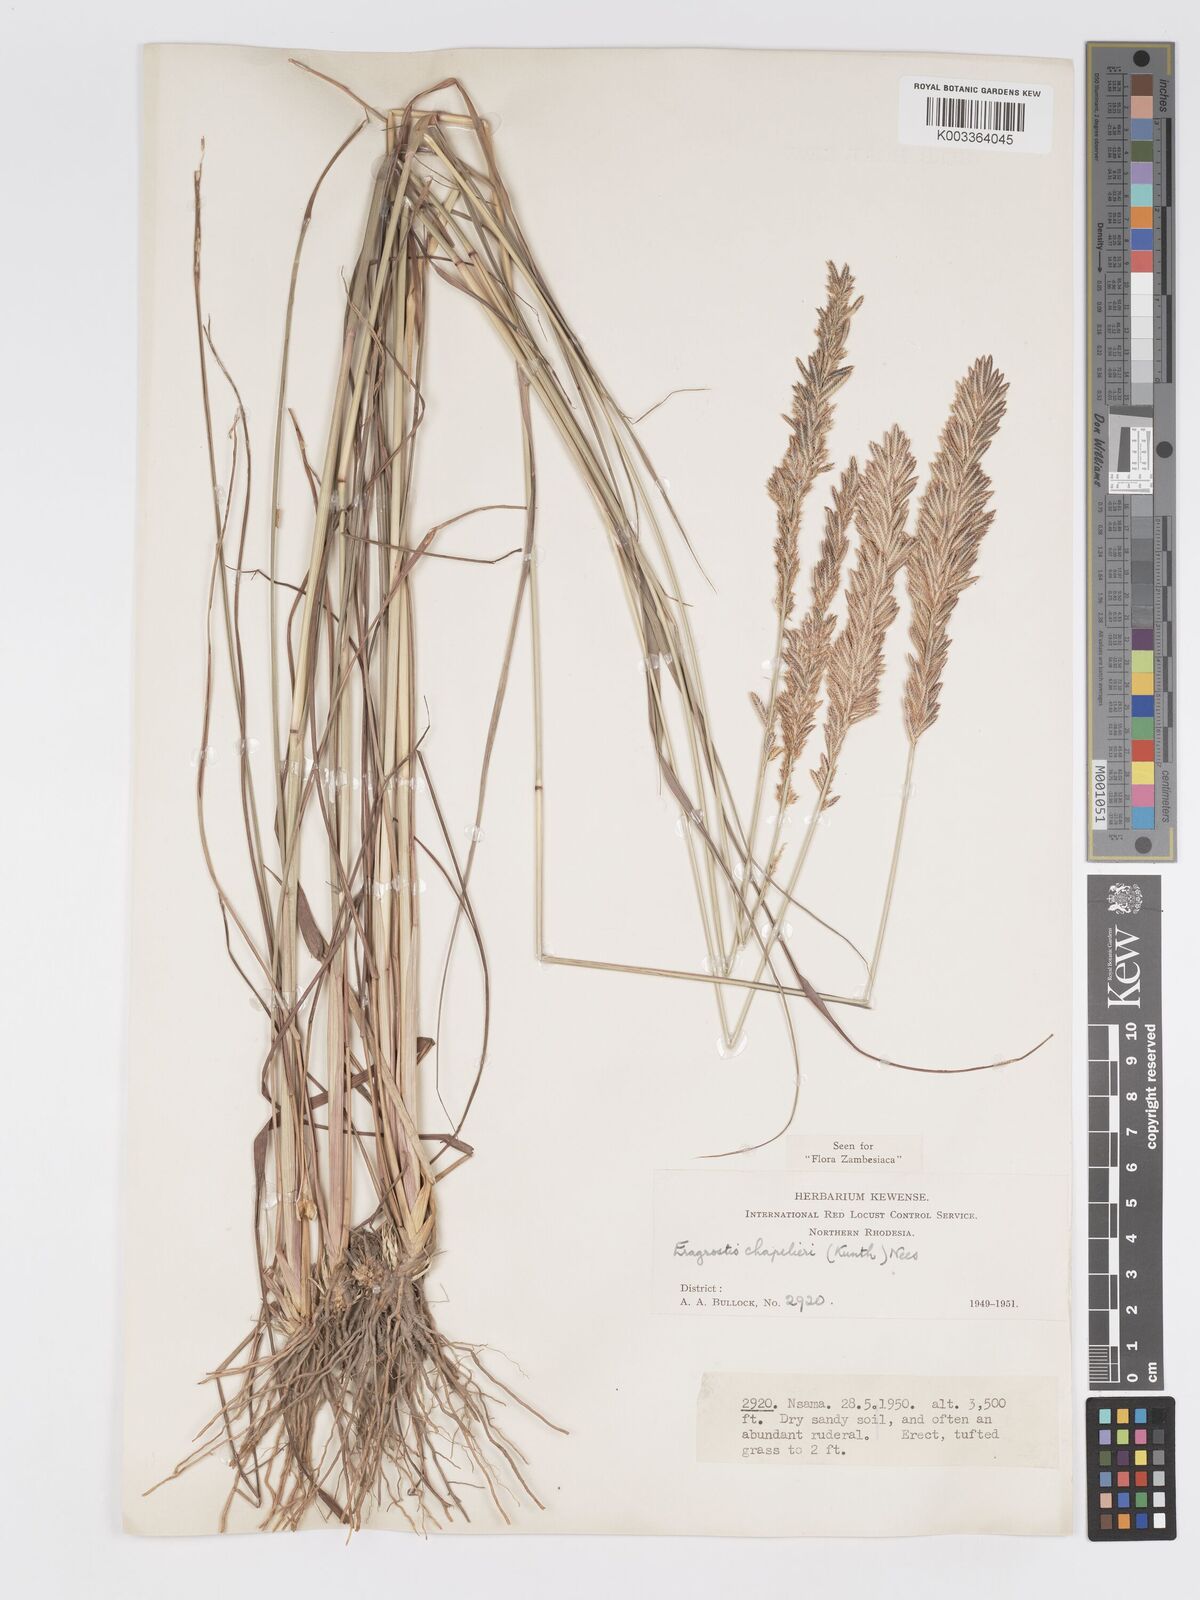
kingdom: Plantae
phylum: Tracheophyta
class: Liliopsida
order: Poales
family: Poaceae
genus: Eragrostis
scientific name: Eragrostis chapelieri
